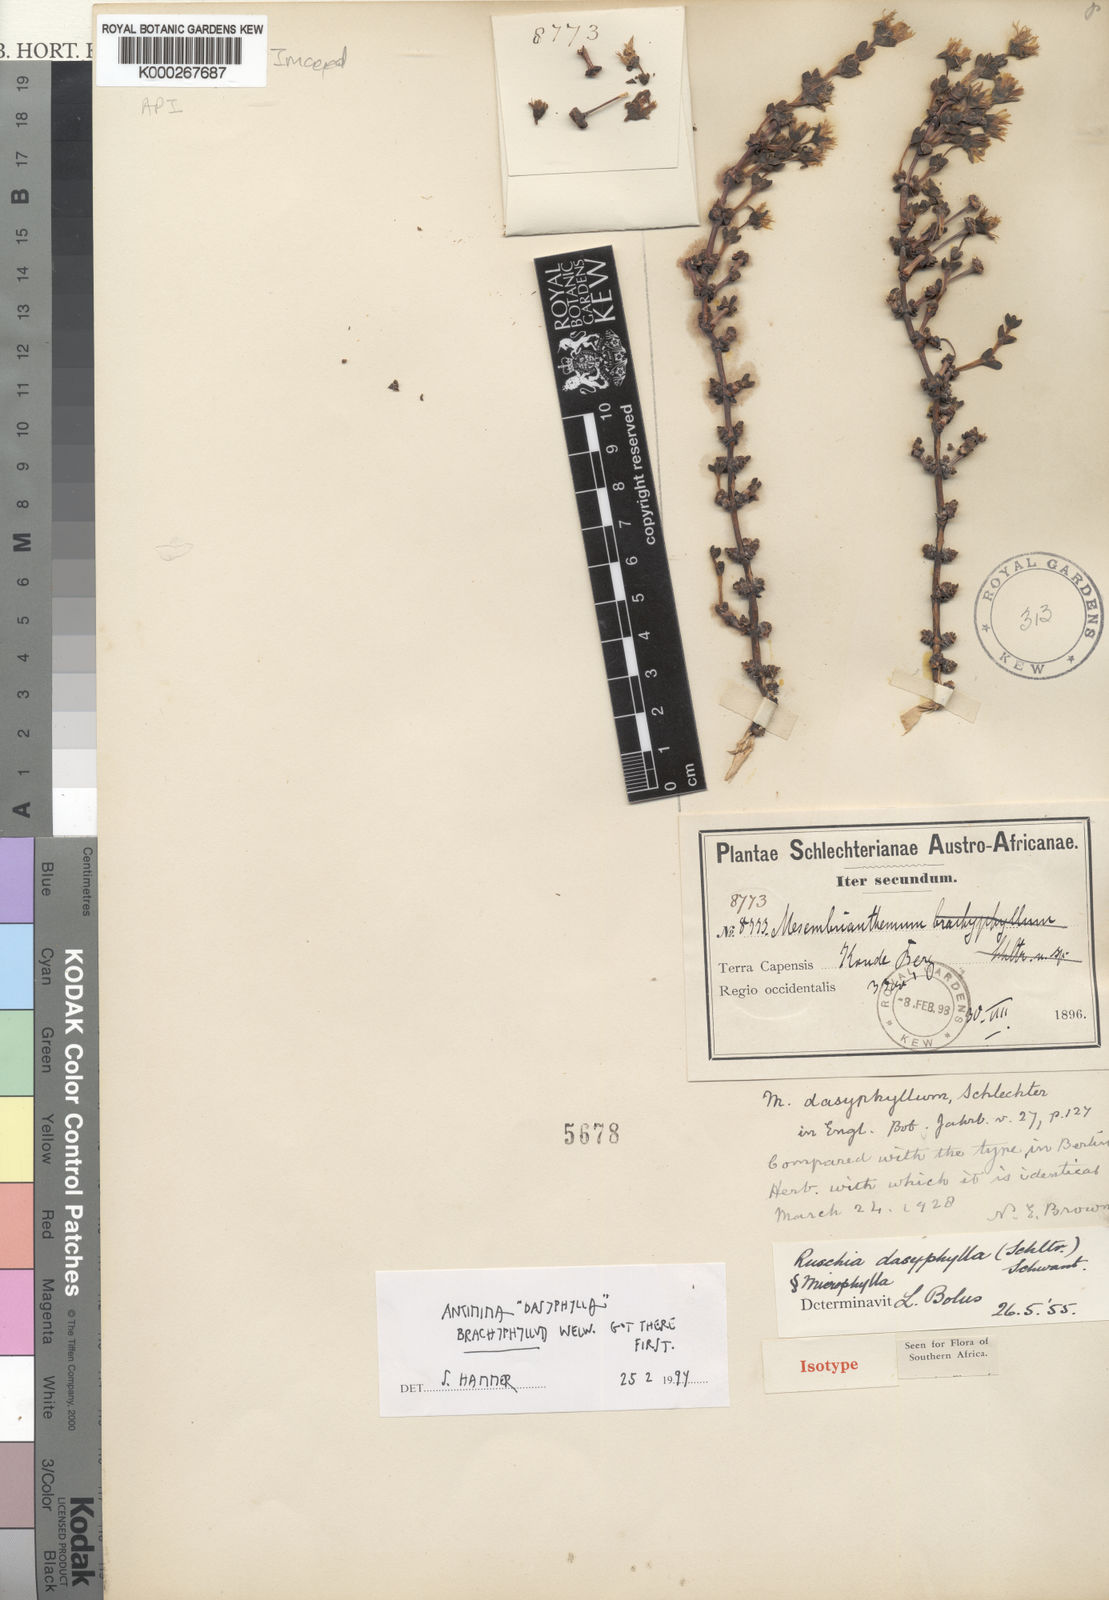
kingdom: Plantae
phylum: Tracheophyta
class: Magnoliopsida
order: Caryophyllales
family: Aizoaceae
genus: Antimima
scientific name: Antimima dasyphylla
